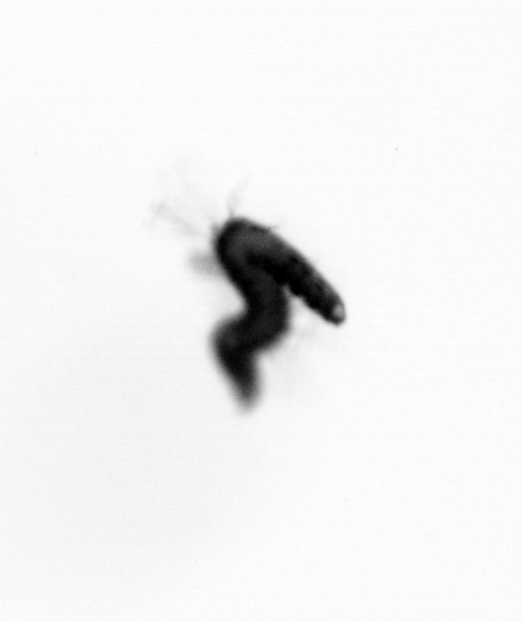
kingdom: Animalia
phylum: Annelida
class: Polychaeta
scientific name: Polychaeta
